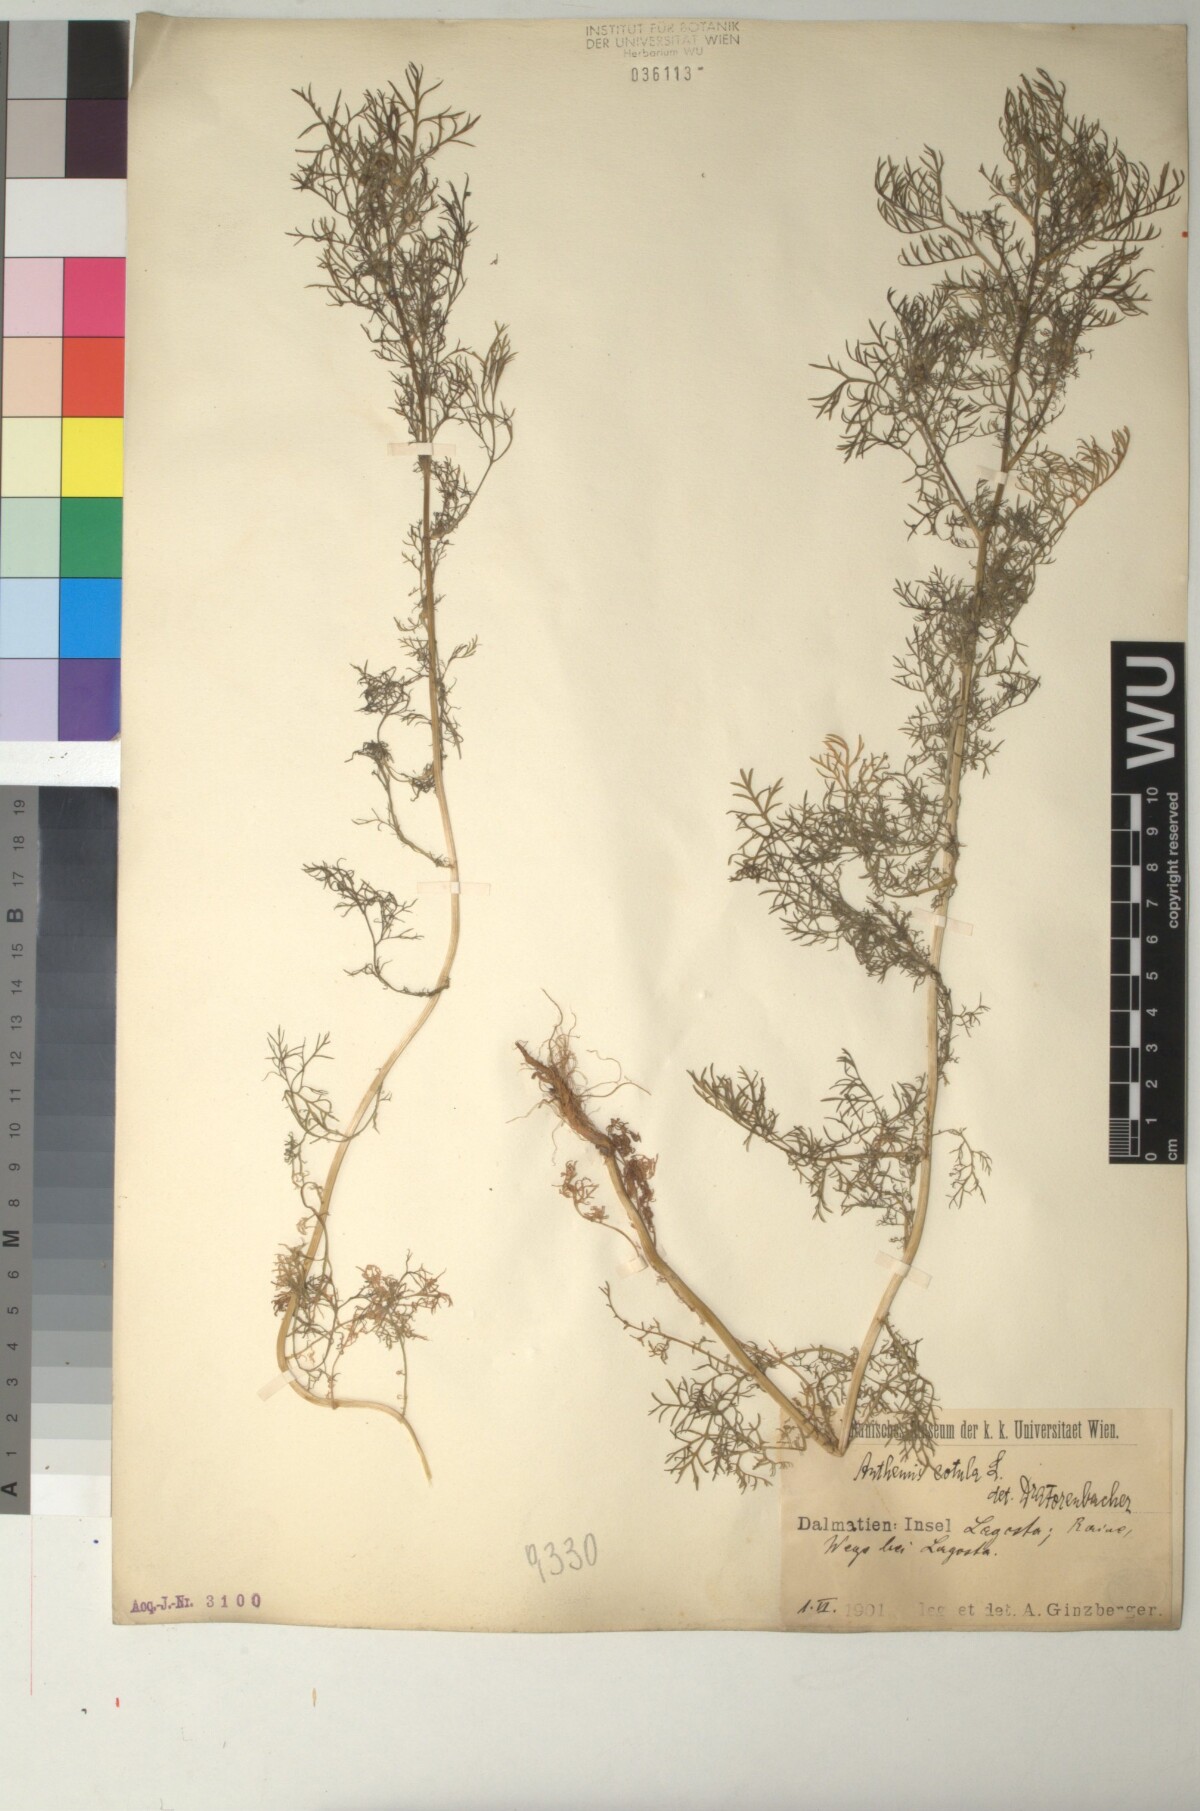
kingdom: Plantae
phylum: Tracheophyta
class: Magnoliopsida
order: Asterales
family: Asteraceae
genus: Anthemis
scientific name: Anthemis cotula
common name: Stinking chamomile
